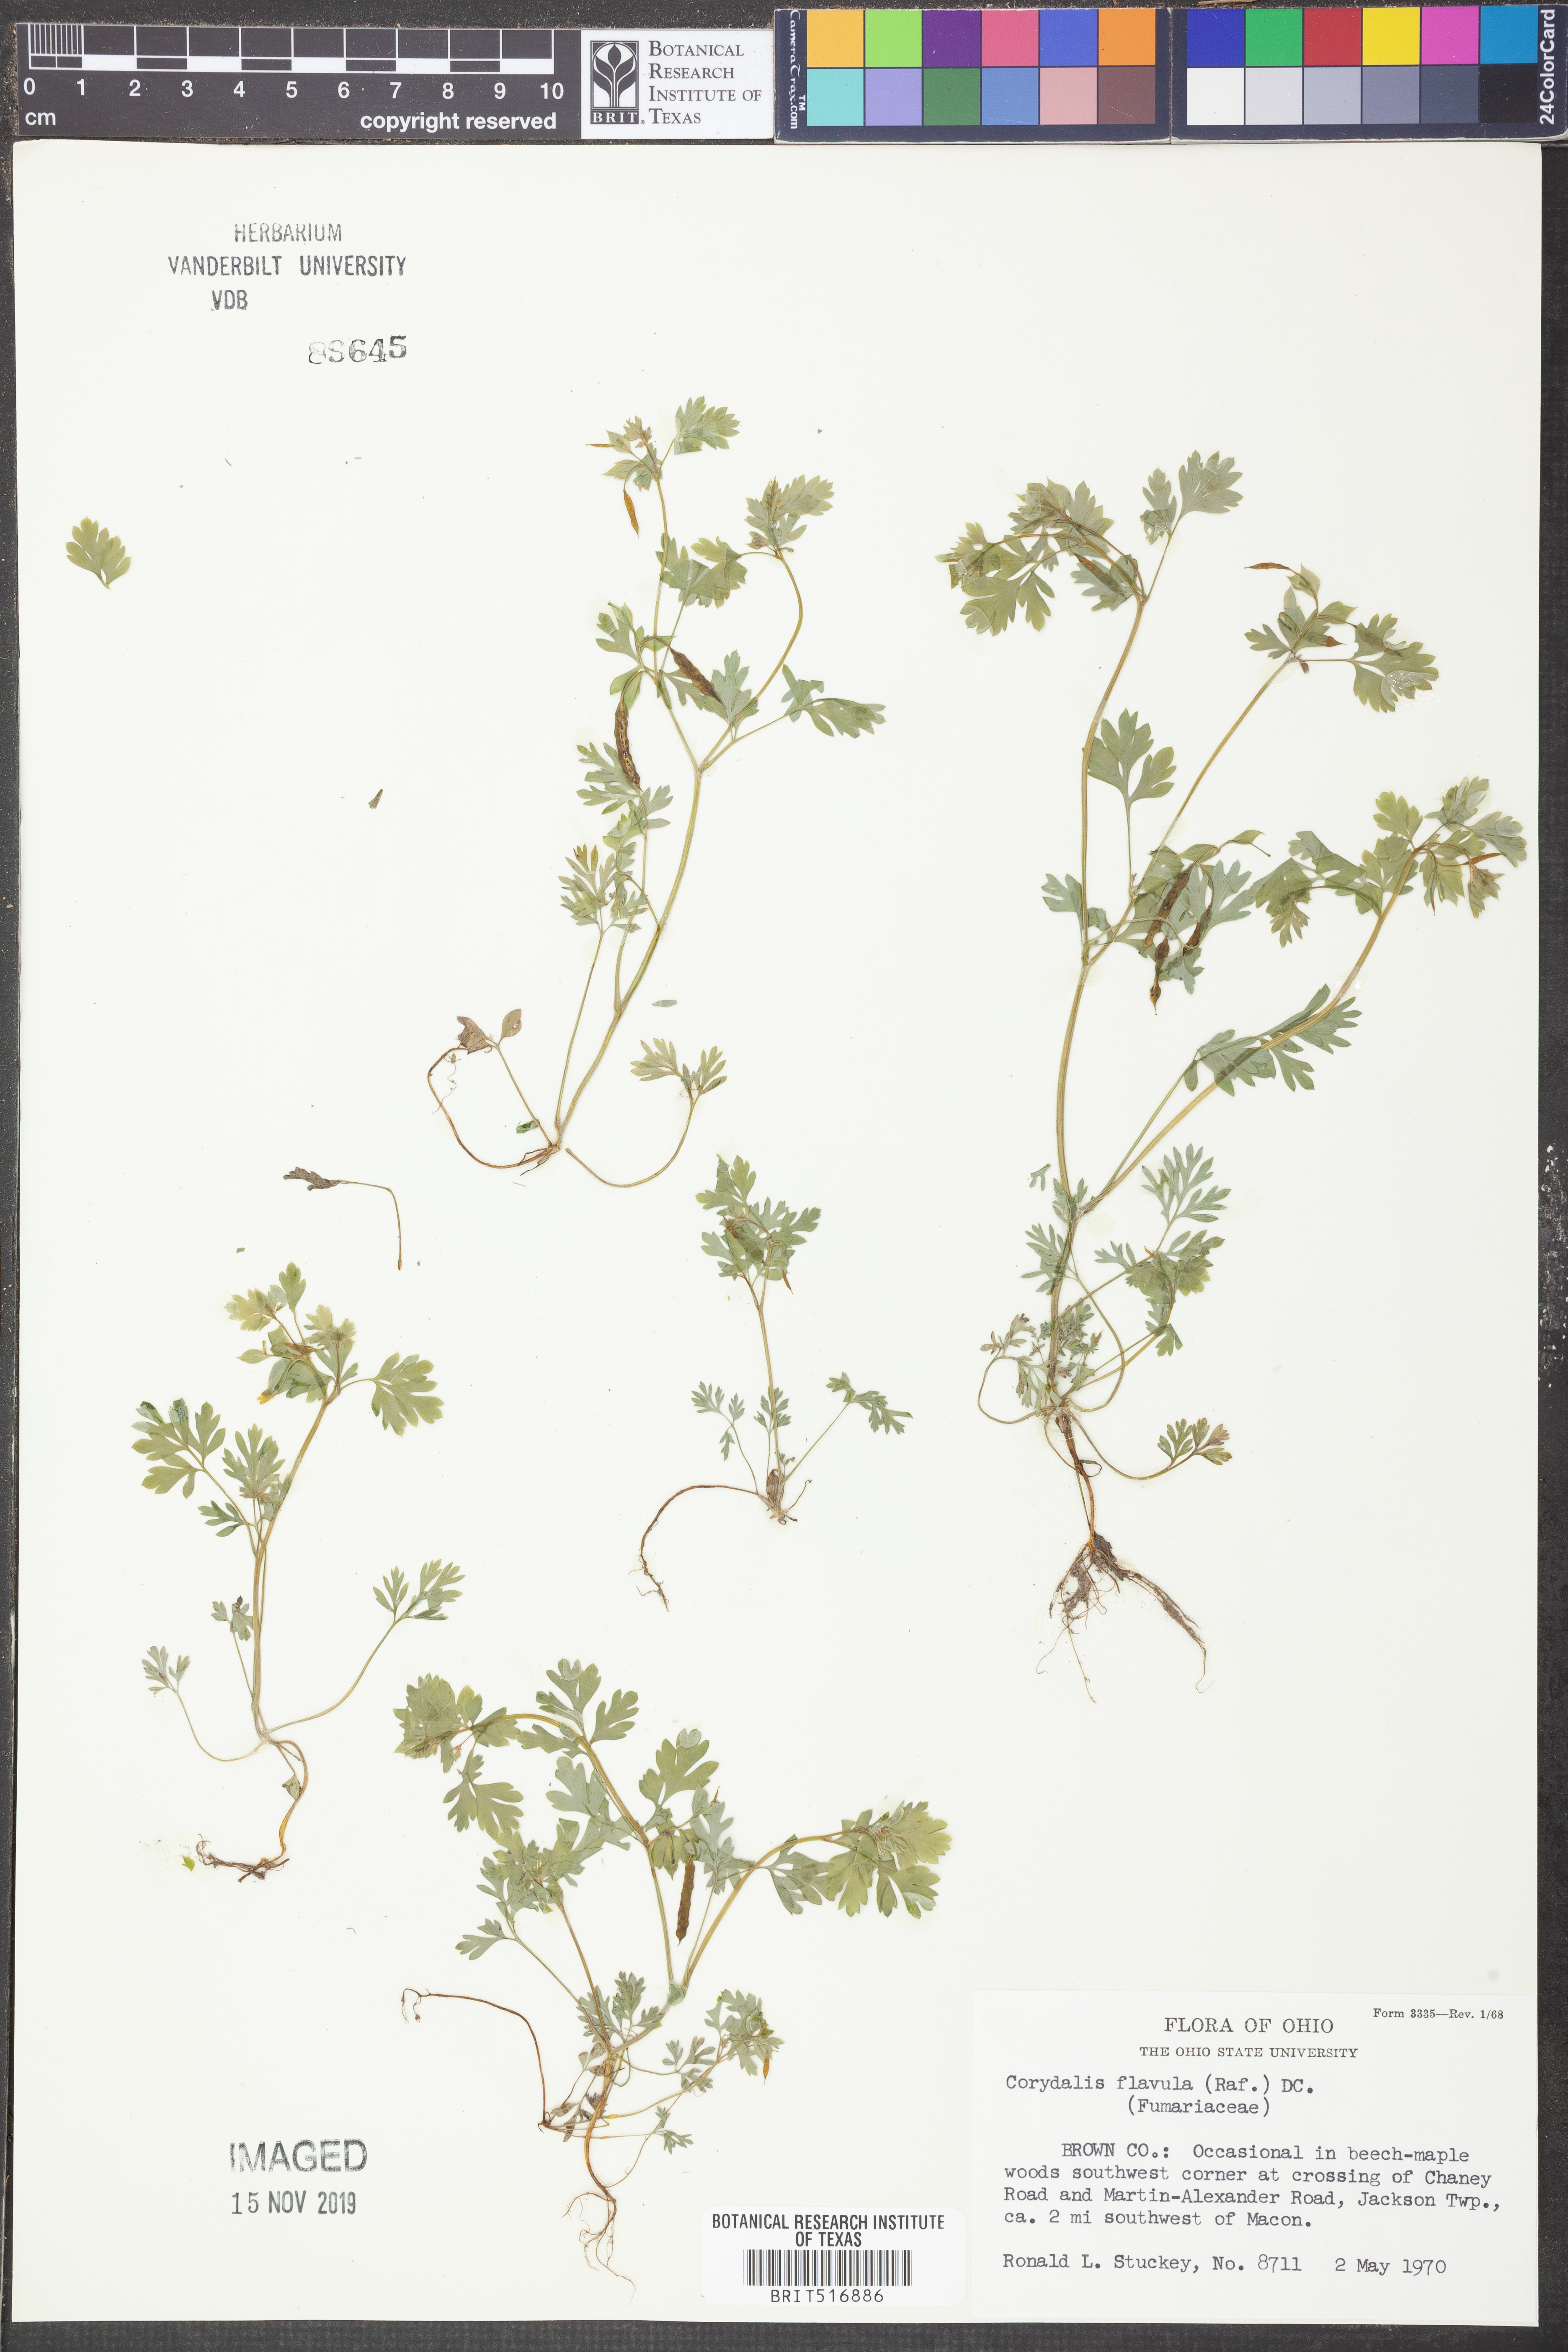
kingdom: Plantae
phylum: Tracheophyta
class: Magnoliopsida
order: Ranunculales
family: Papaveraceae
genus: Corydalis
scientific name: Corydalis flavula
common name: Yellow corydalis
